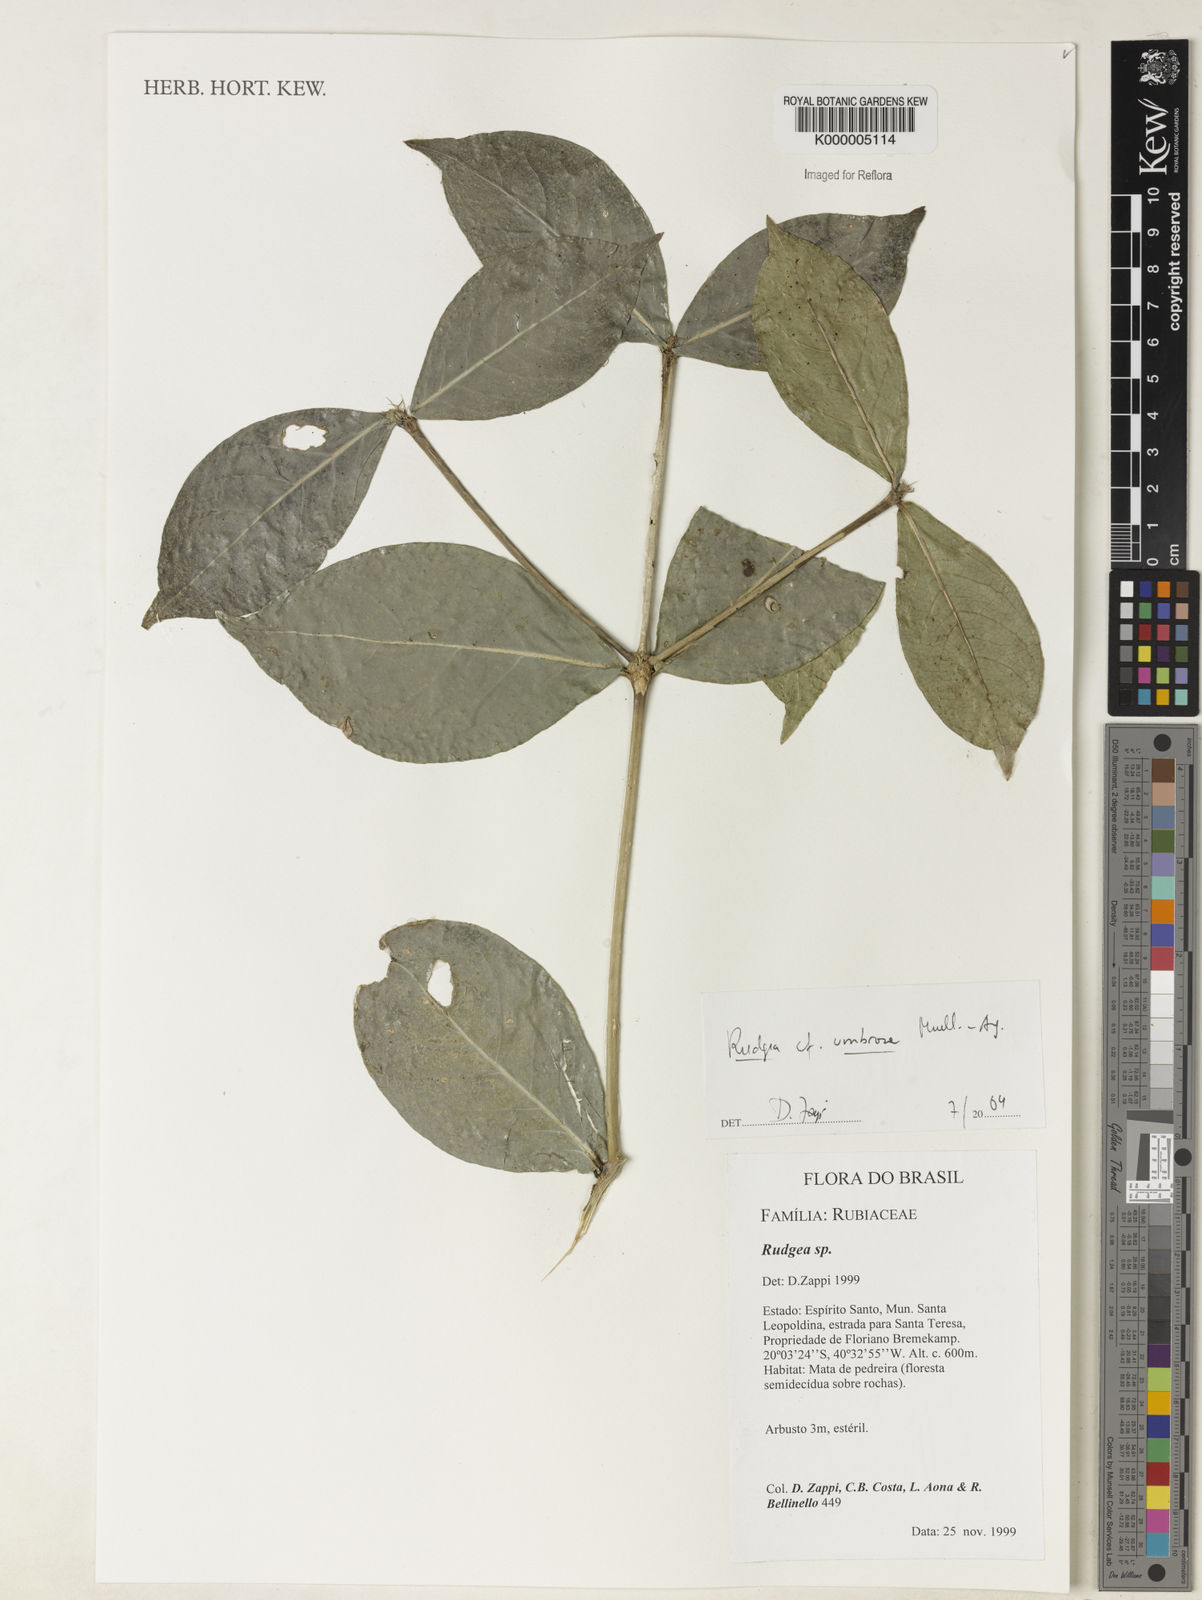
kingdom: Plantae
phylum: Tracheophyta
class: Magnoliopsida
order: Gentianales
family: Rubiaceae
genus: Rudgea
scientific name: Rudgea umbrosa
